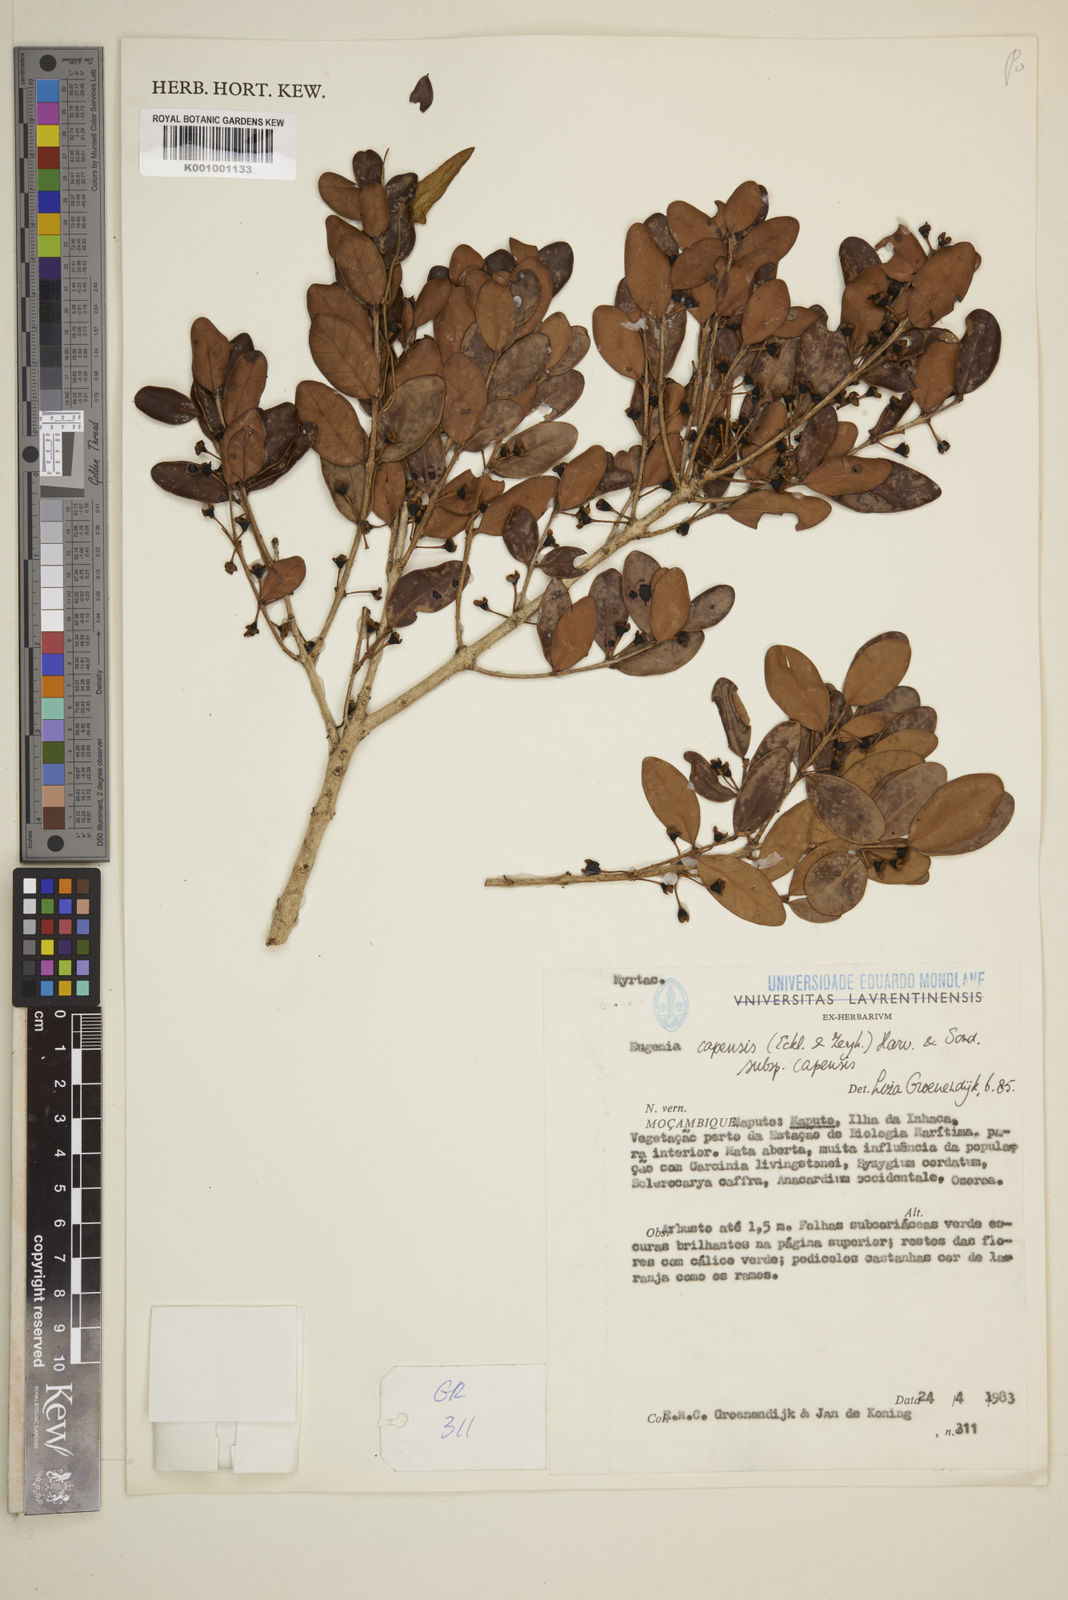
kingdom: Plantae
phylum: Tracheophyta
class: Magnoliopsida
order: Myrtales
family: Myrtaceae
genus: Eugenia
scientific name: Eugenia capensis
